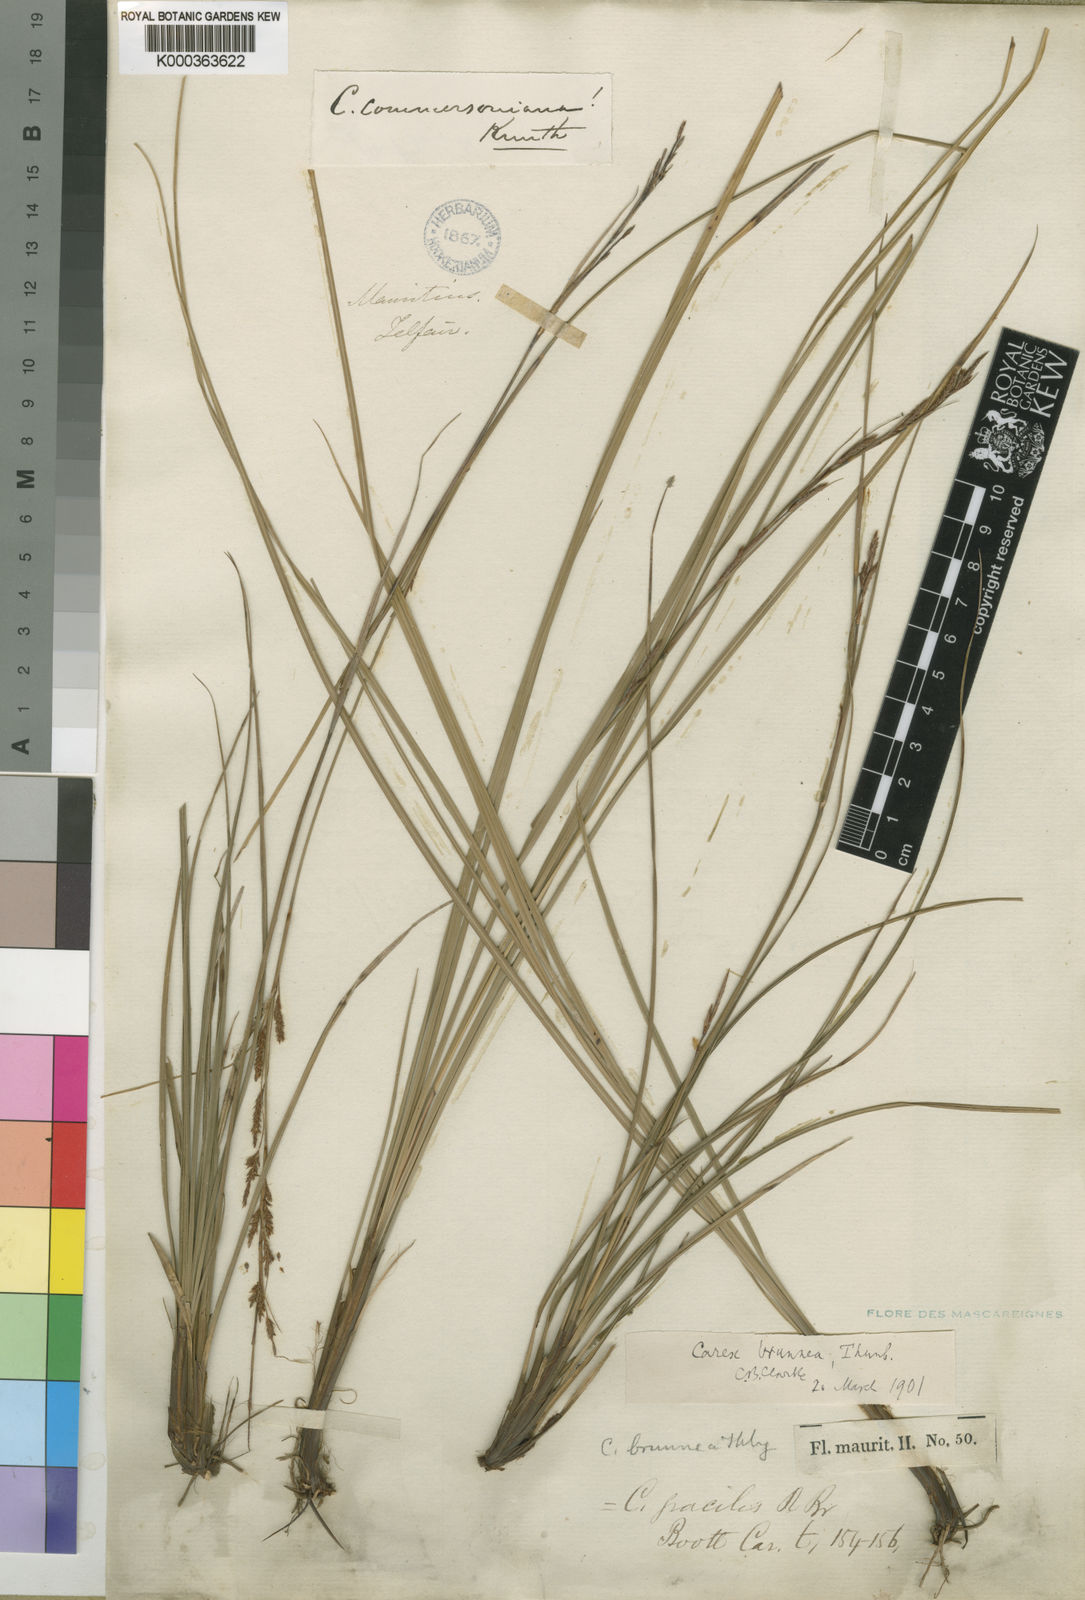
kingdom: Plantae
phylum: Tracheophyta
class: Liliopsida
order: Poales
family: Cyperaceae
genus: Carex
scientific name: Carex brunnea
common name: Greater brown sedge
